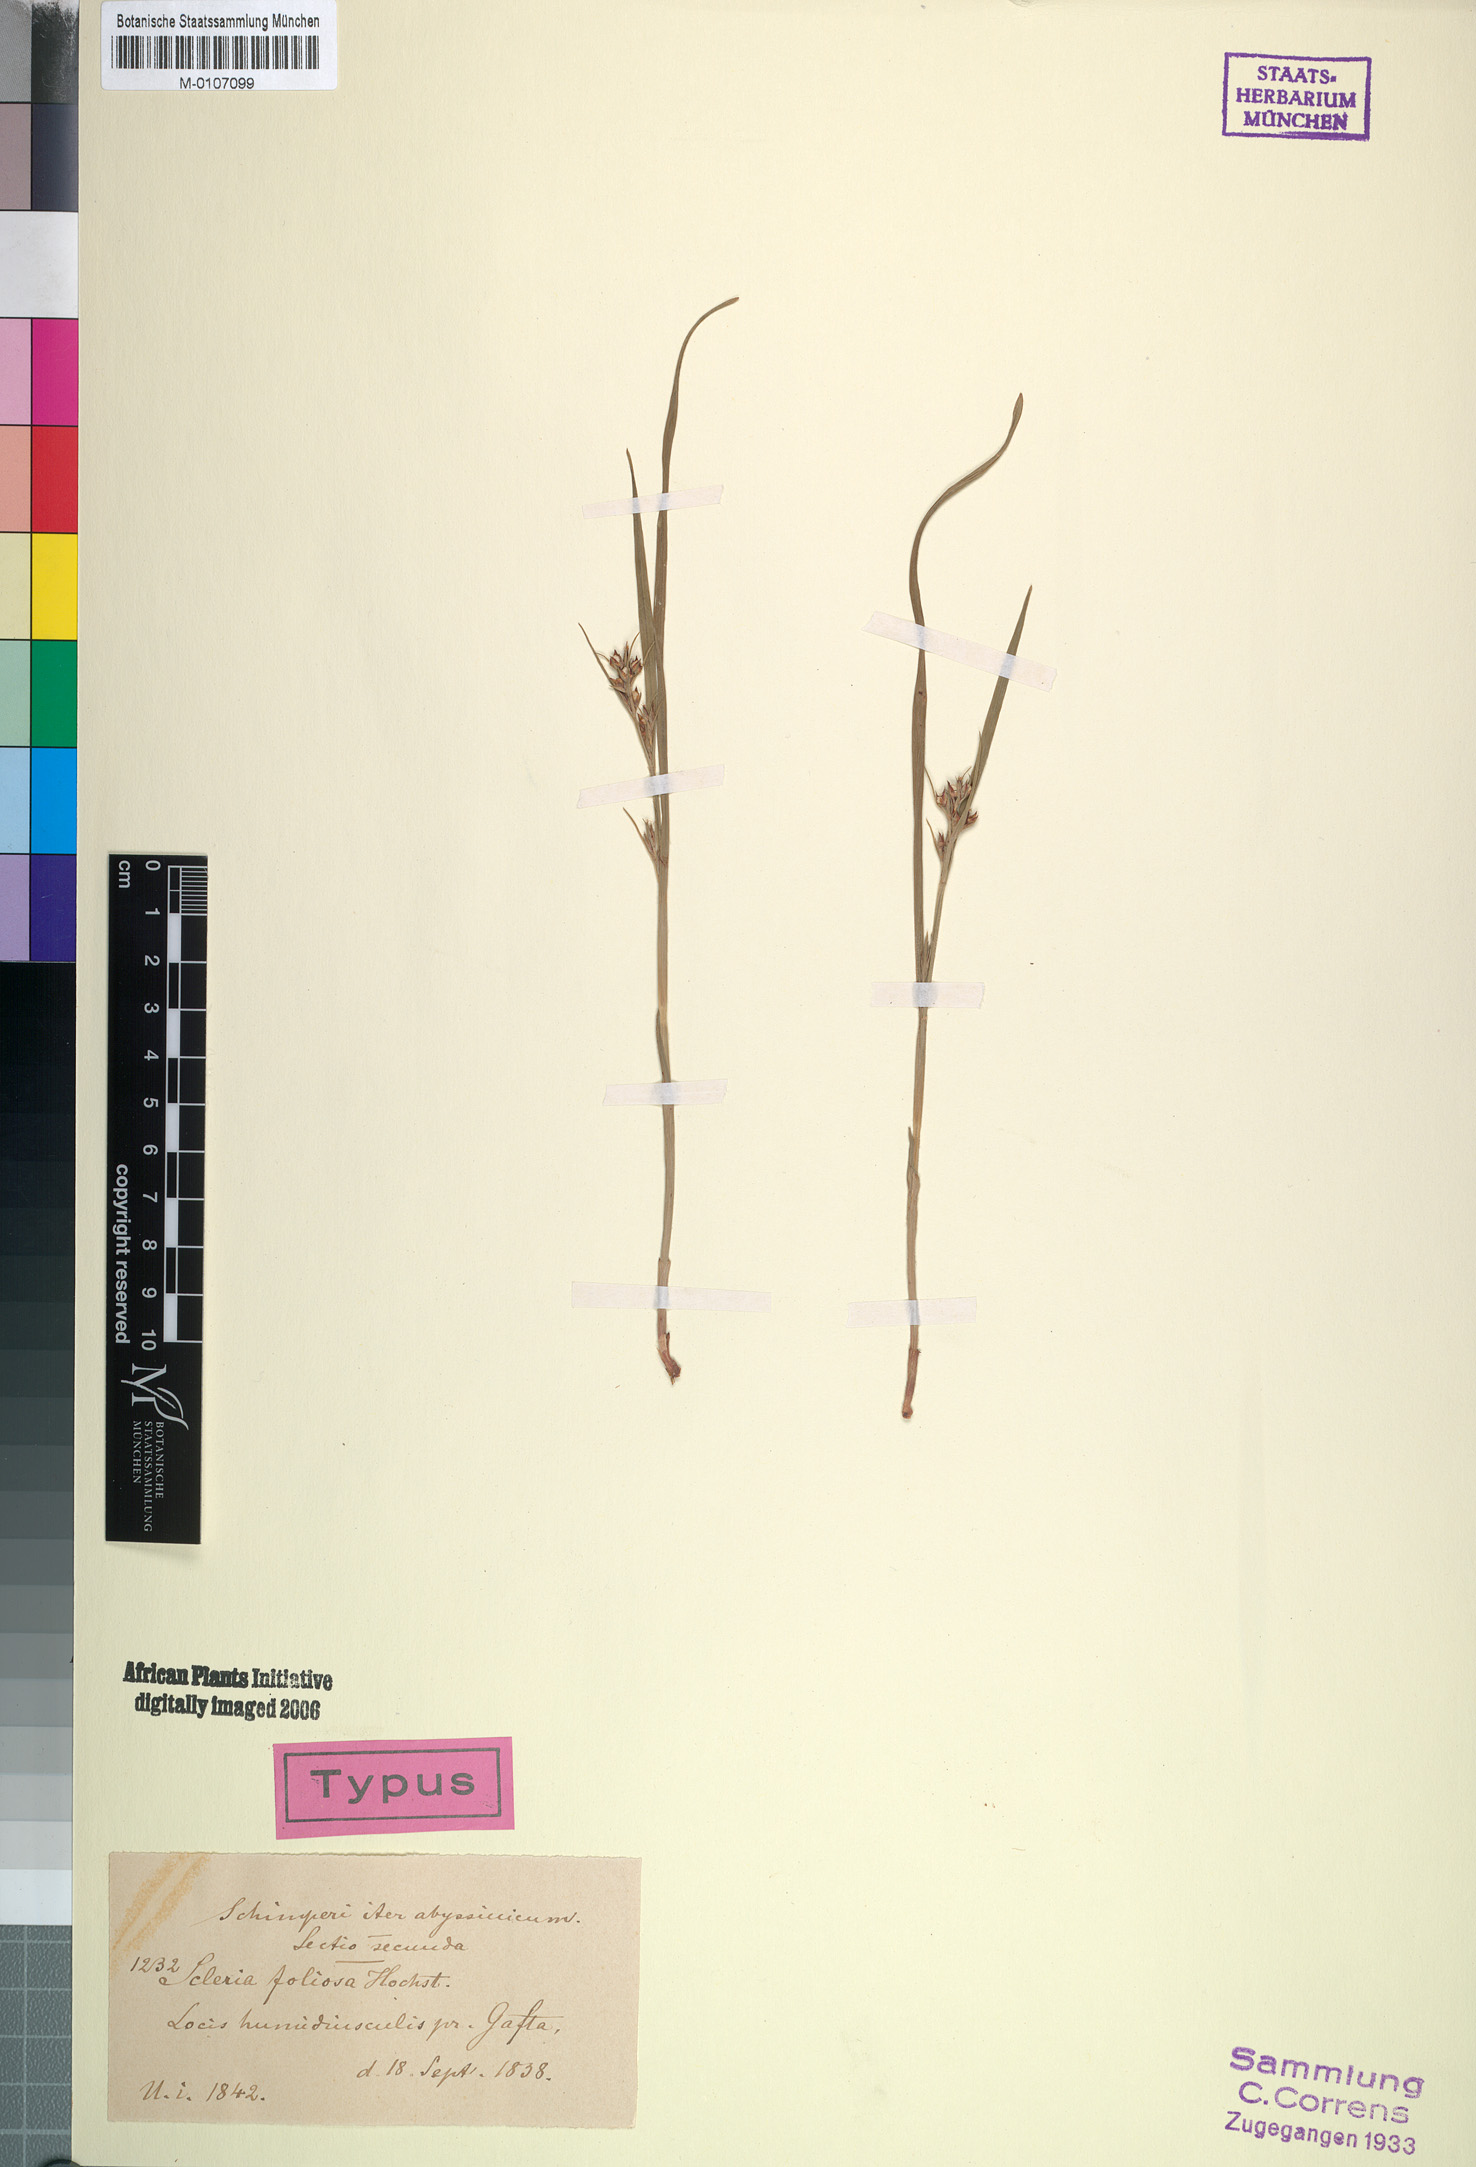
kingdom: Plantae
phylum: Tracheophyta
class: Liliopsida
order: Poales
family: Cyperaceae
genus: Scleria
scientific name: Scleria foliosa
